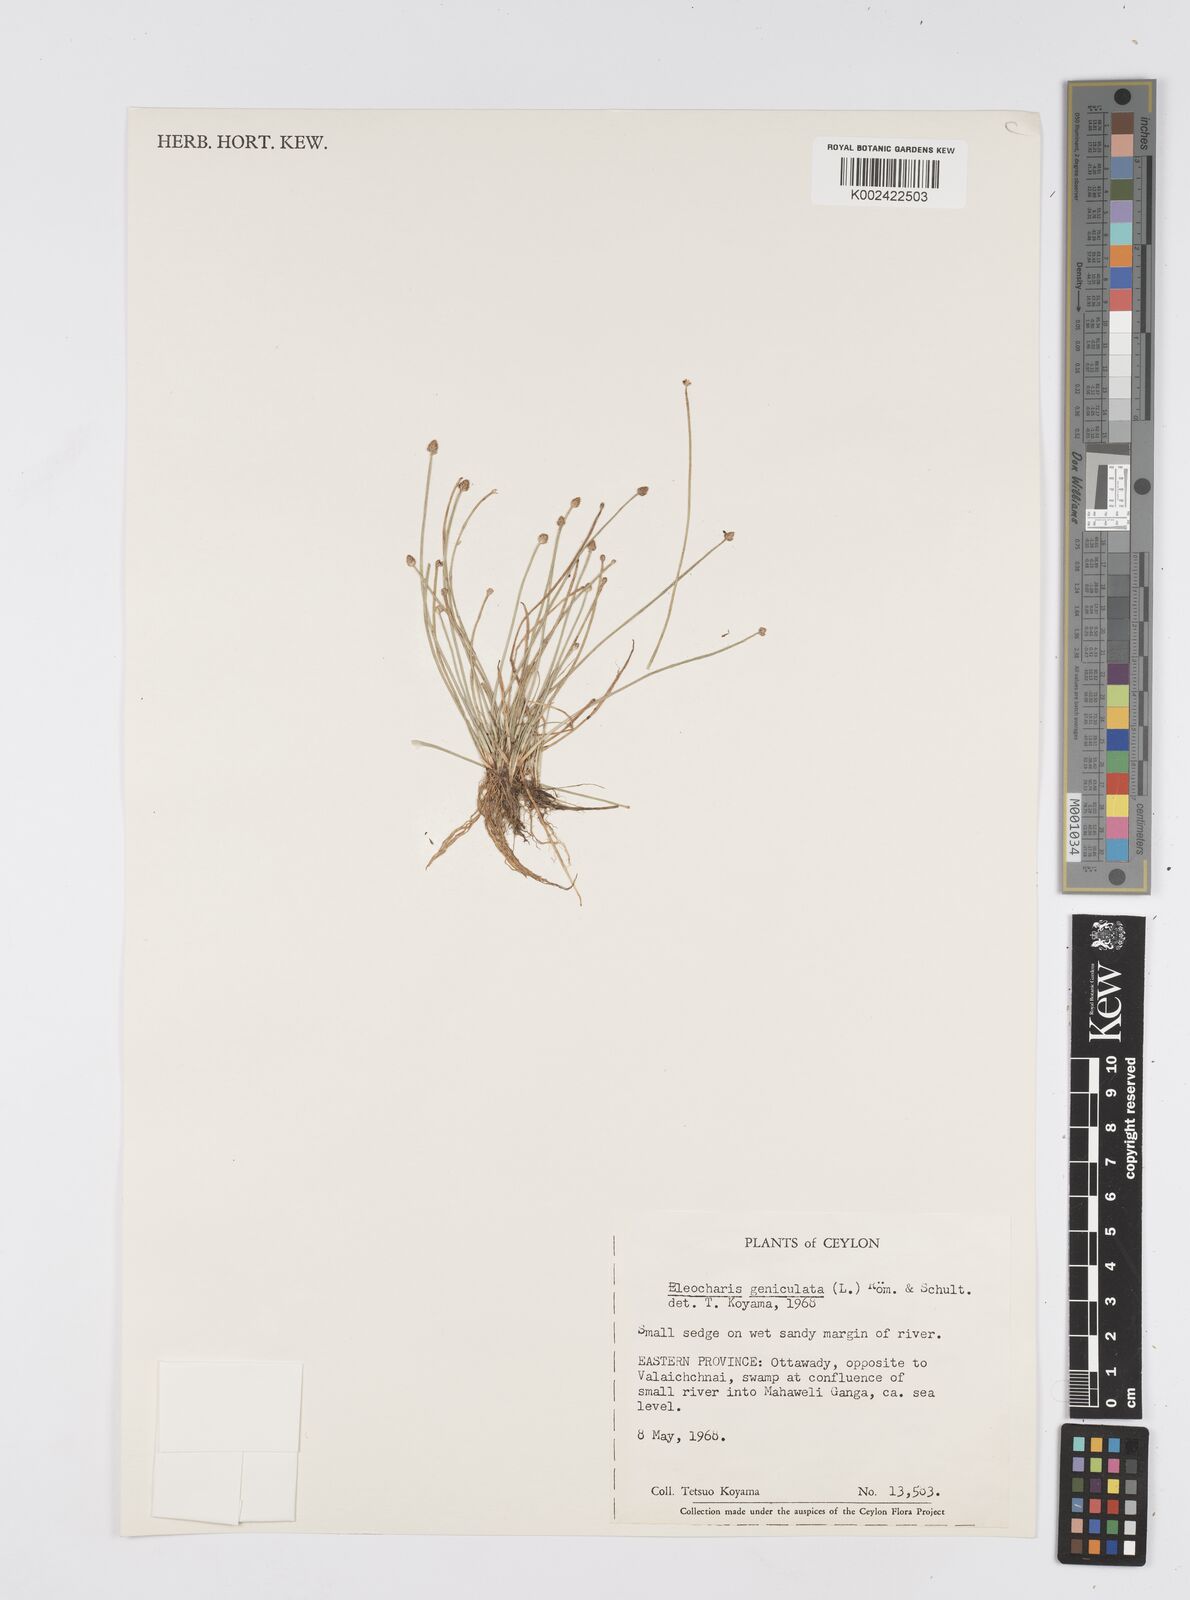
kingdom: Plantae
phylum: Tracheophyta
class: Liliopsida
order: Poales
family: Cyperaceae
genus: Eleocharis
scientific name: Eleocharis geniculata
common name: Canada spikesedge
